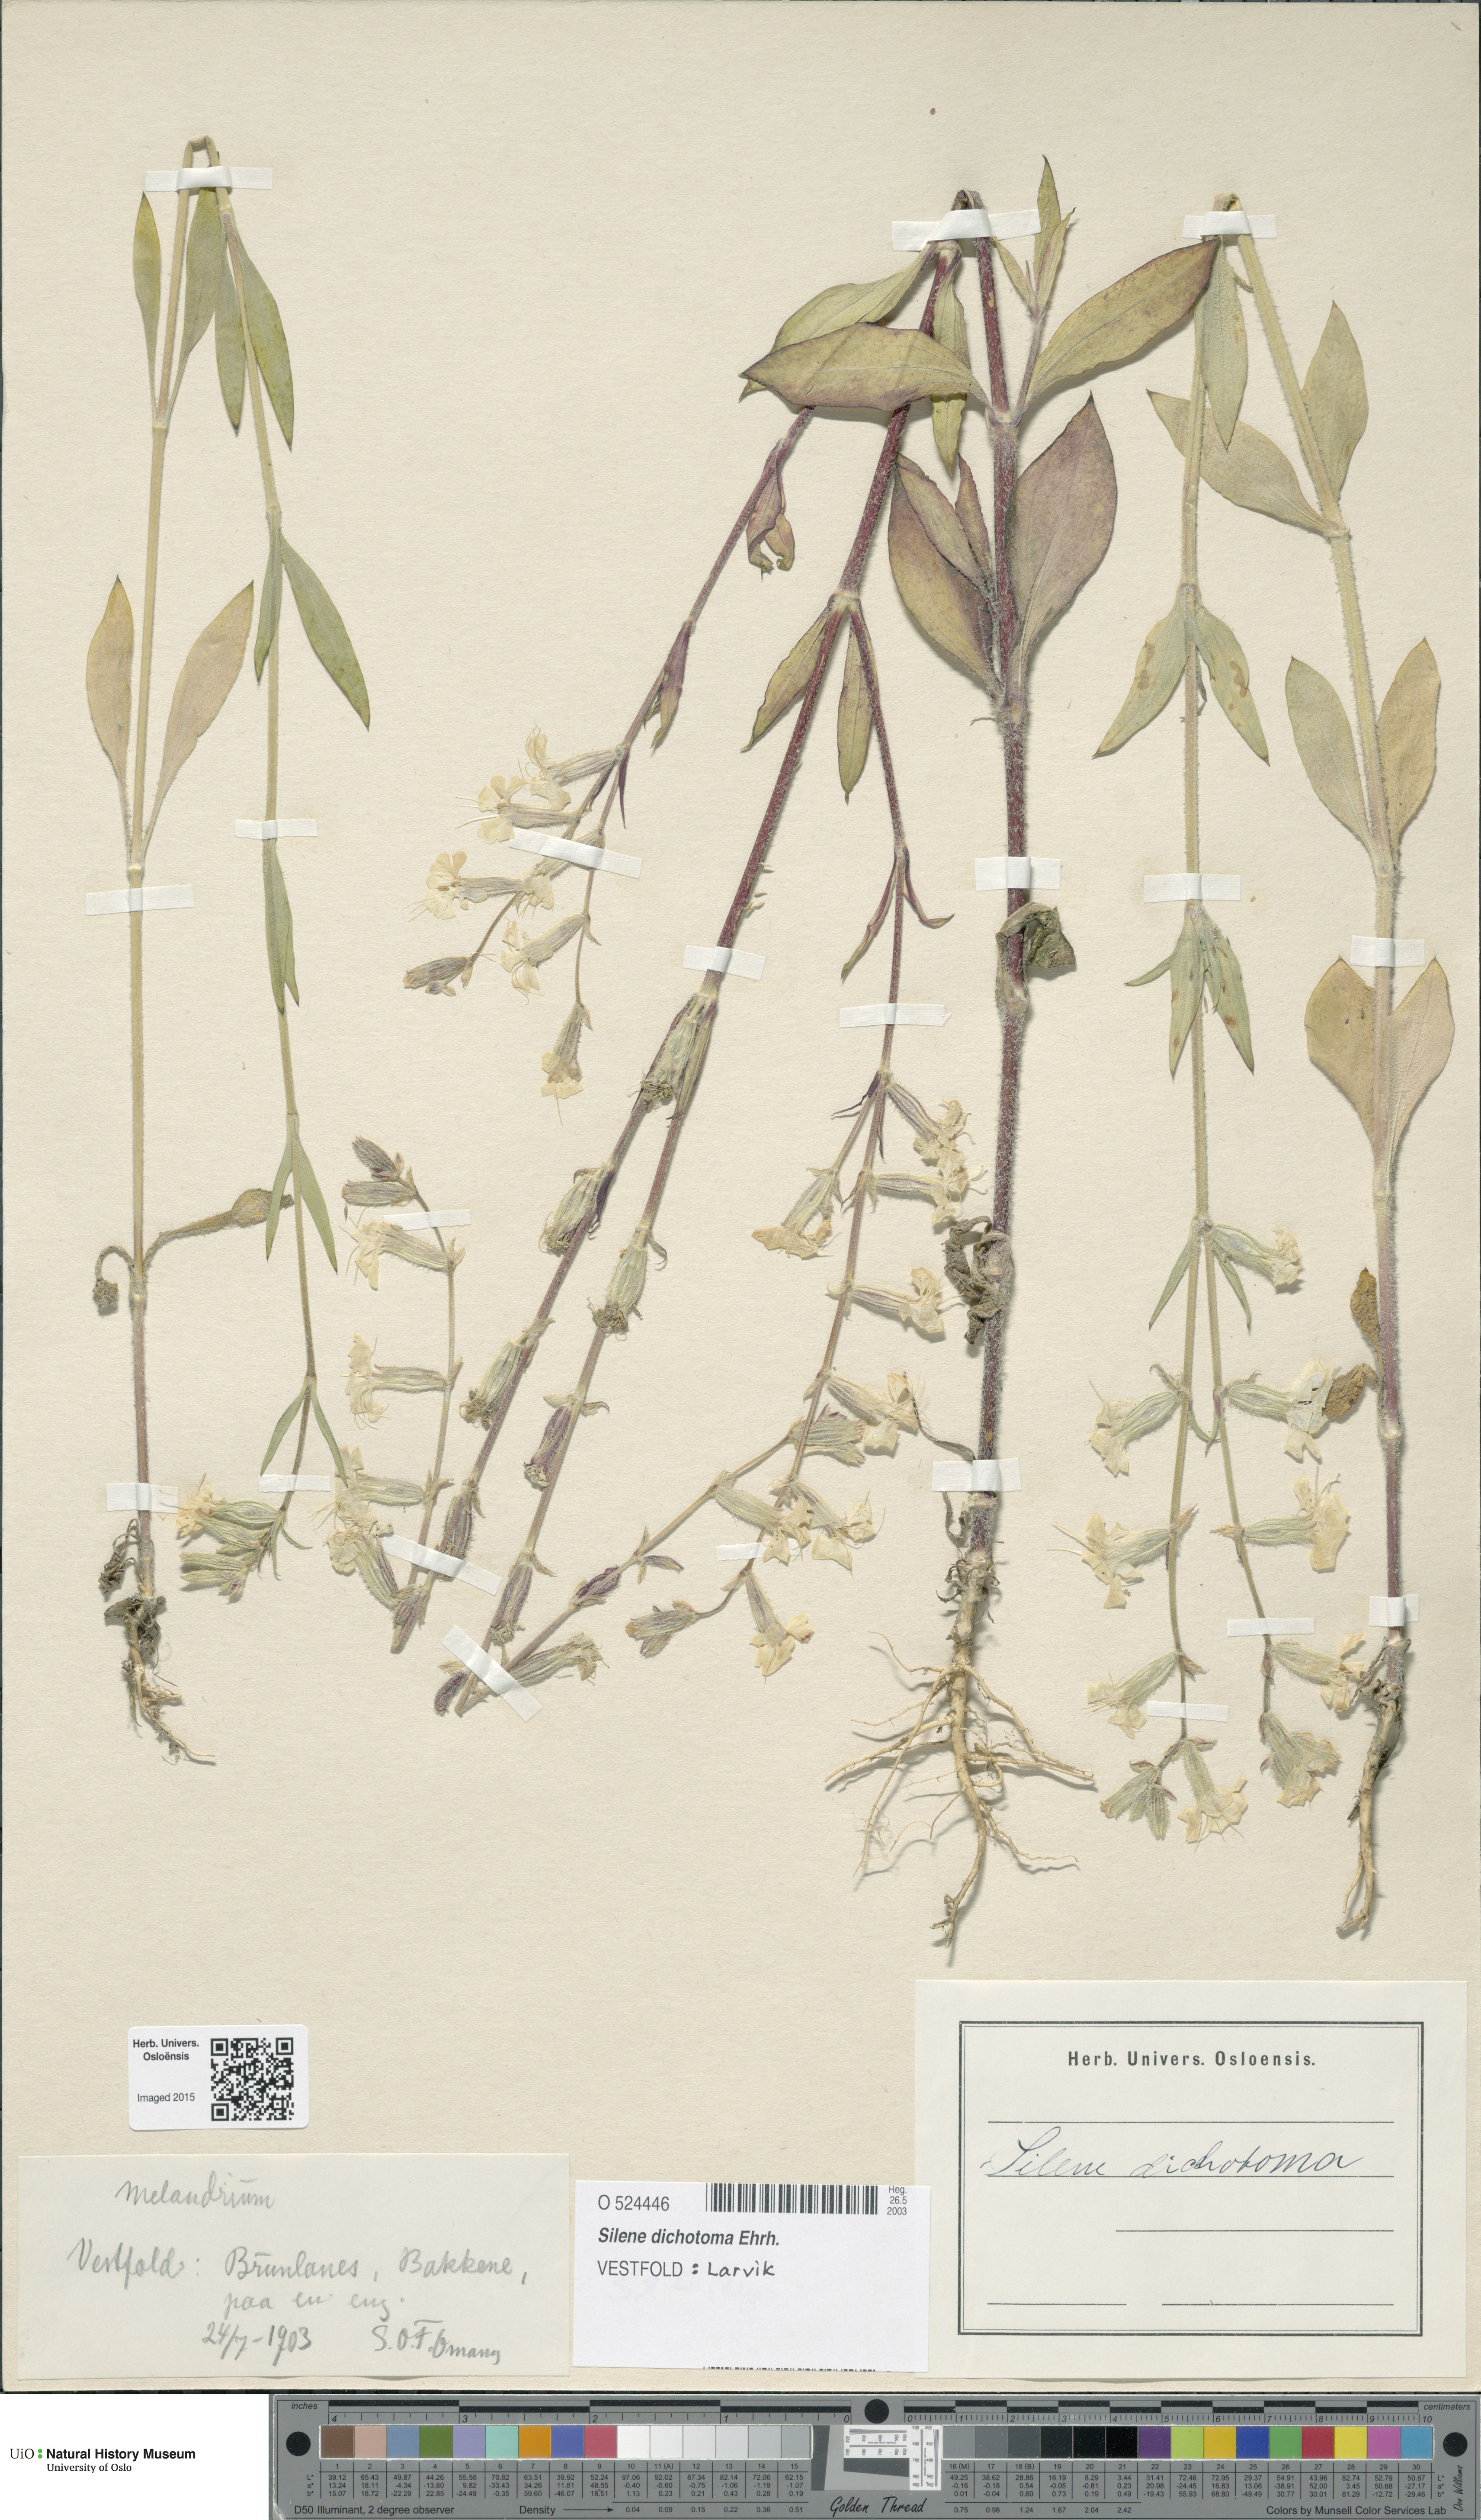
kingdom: Plantae
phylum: Tracheophyta
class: Magnoliopsida
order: Caryophyllales
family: Caryophyllaceae
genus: Silene
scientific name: Silene dichotoma
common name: Forked catchfly
